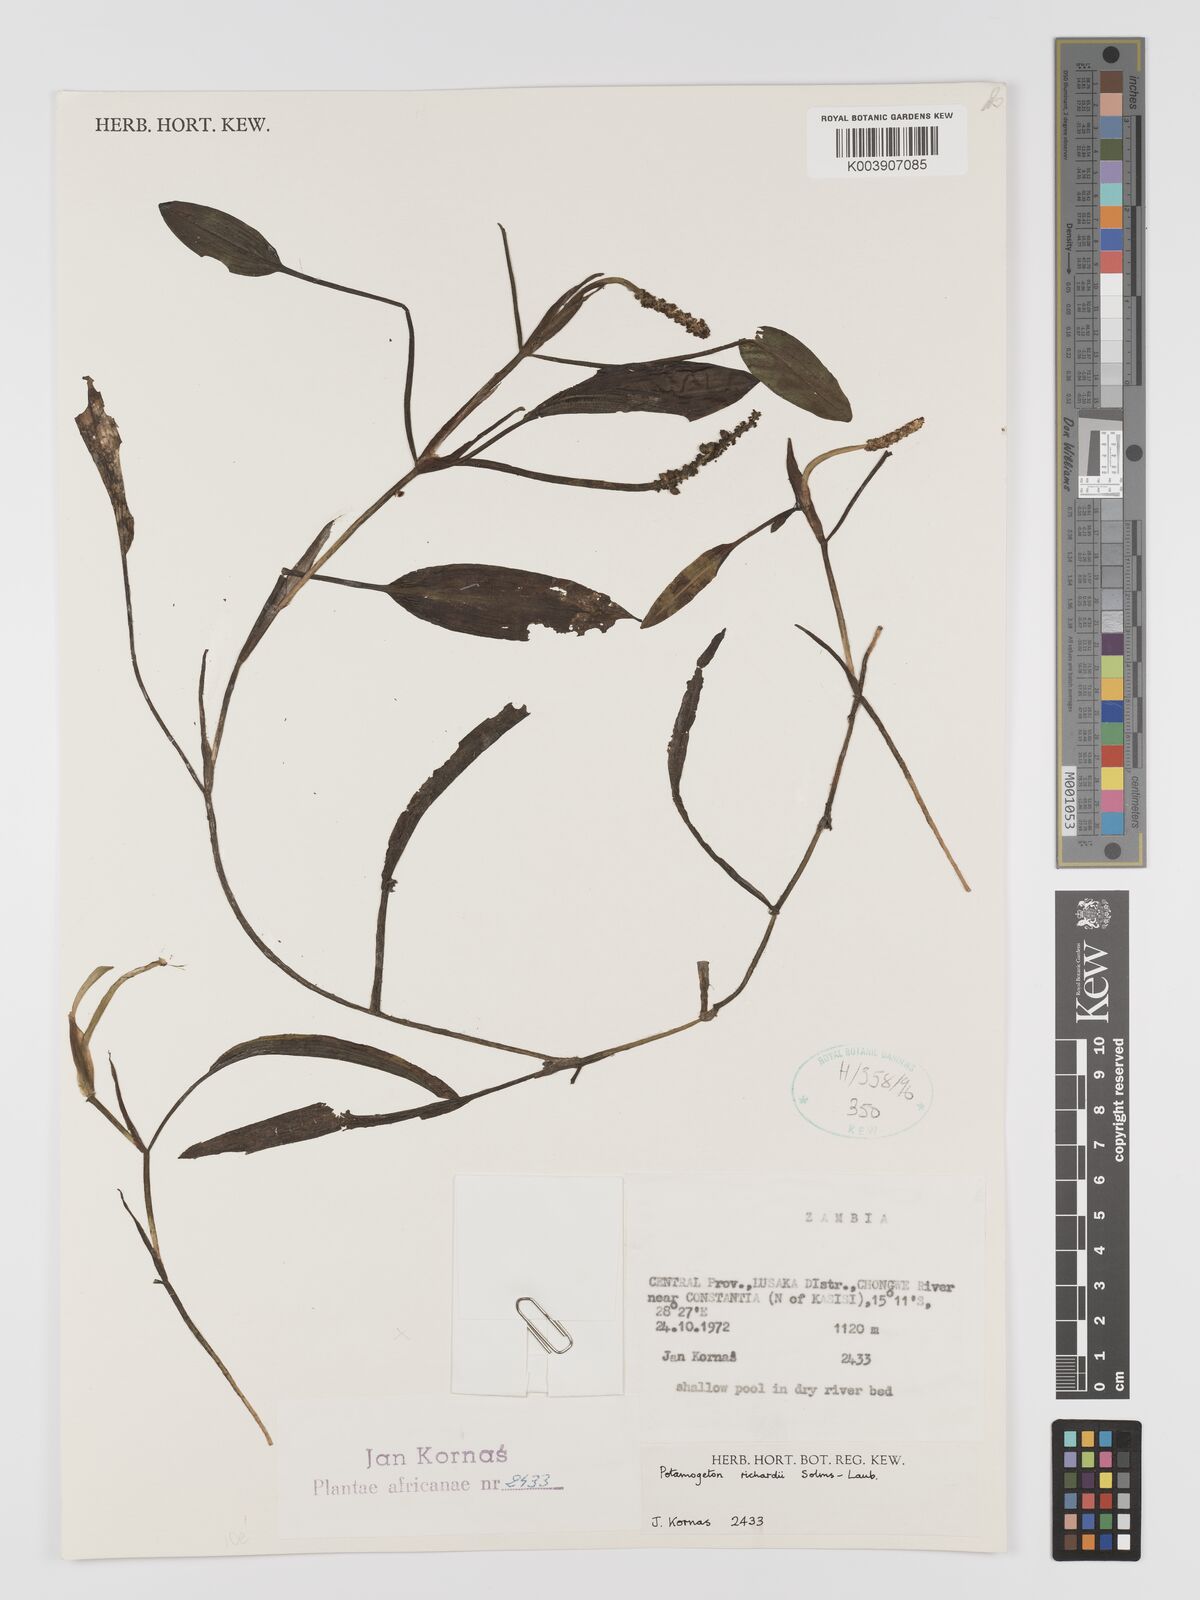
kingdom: Plantae
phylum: Tracheophyta
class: Liliopsida
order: Alismatales
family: Potamogetonaceae
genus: Potamogeton
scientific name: Potamogeton nodosus
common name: Loddon pondweed
